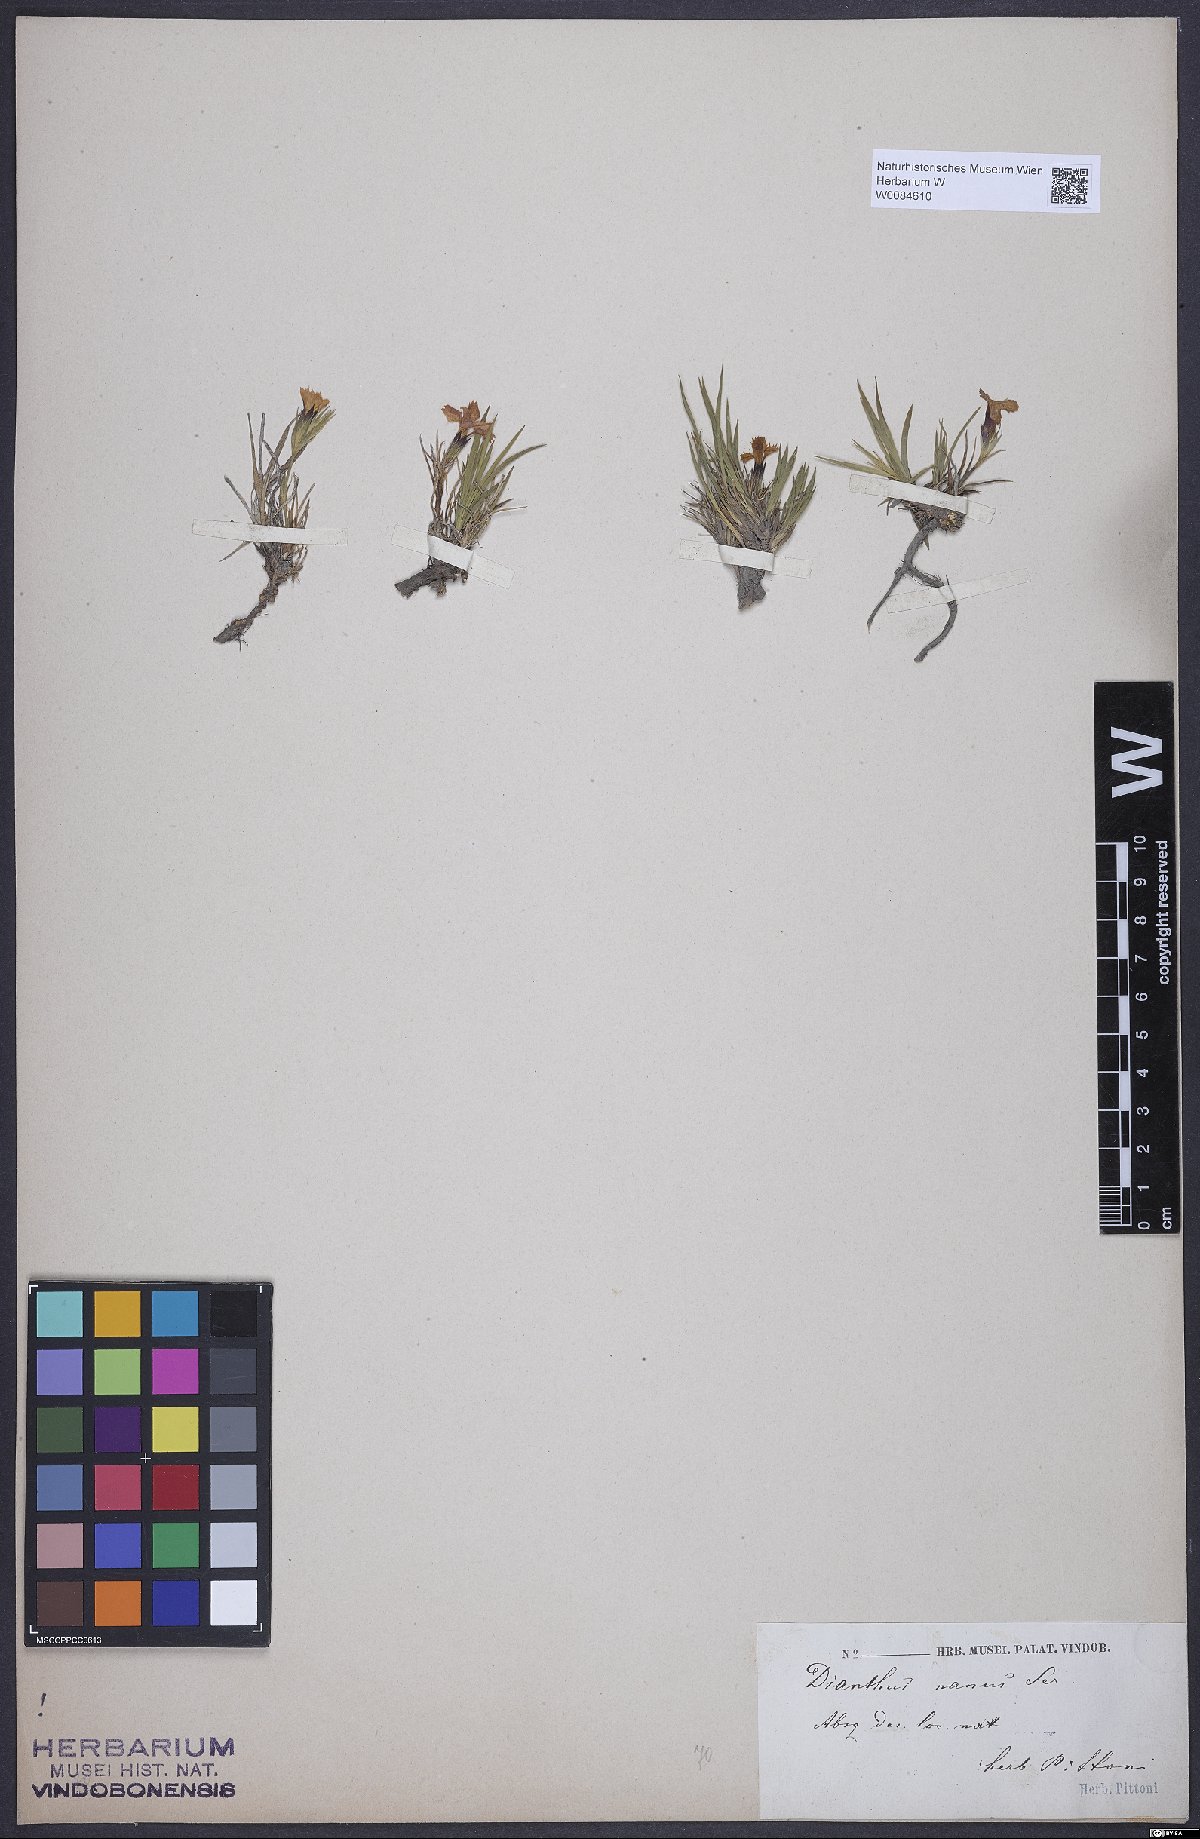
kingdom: Plantae
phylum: Tracheophyta
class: Magnoliopsida
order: Caryophyllales
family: Caryophyllaceae
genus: Dianthus
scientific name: Dianthus carthusianorum
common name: Carthusian pink
